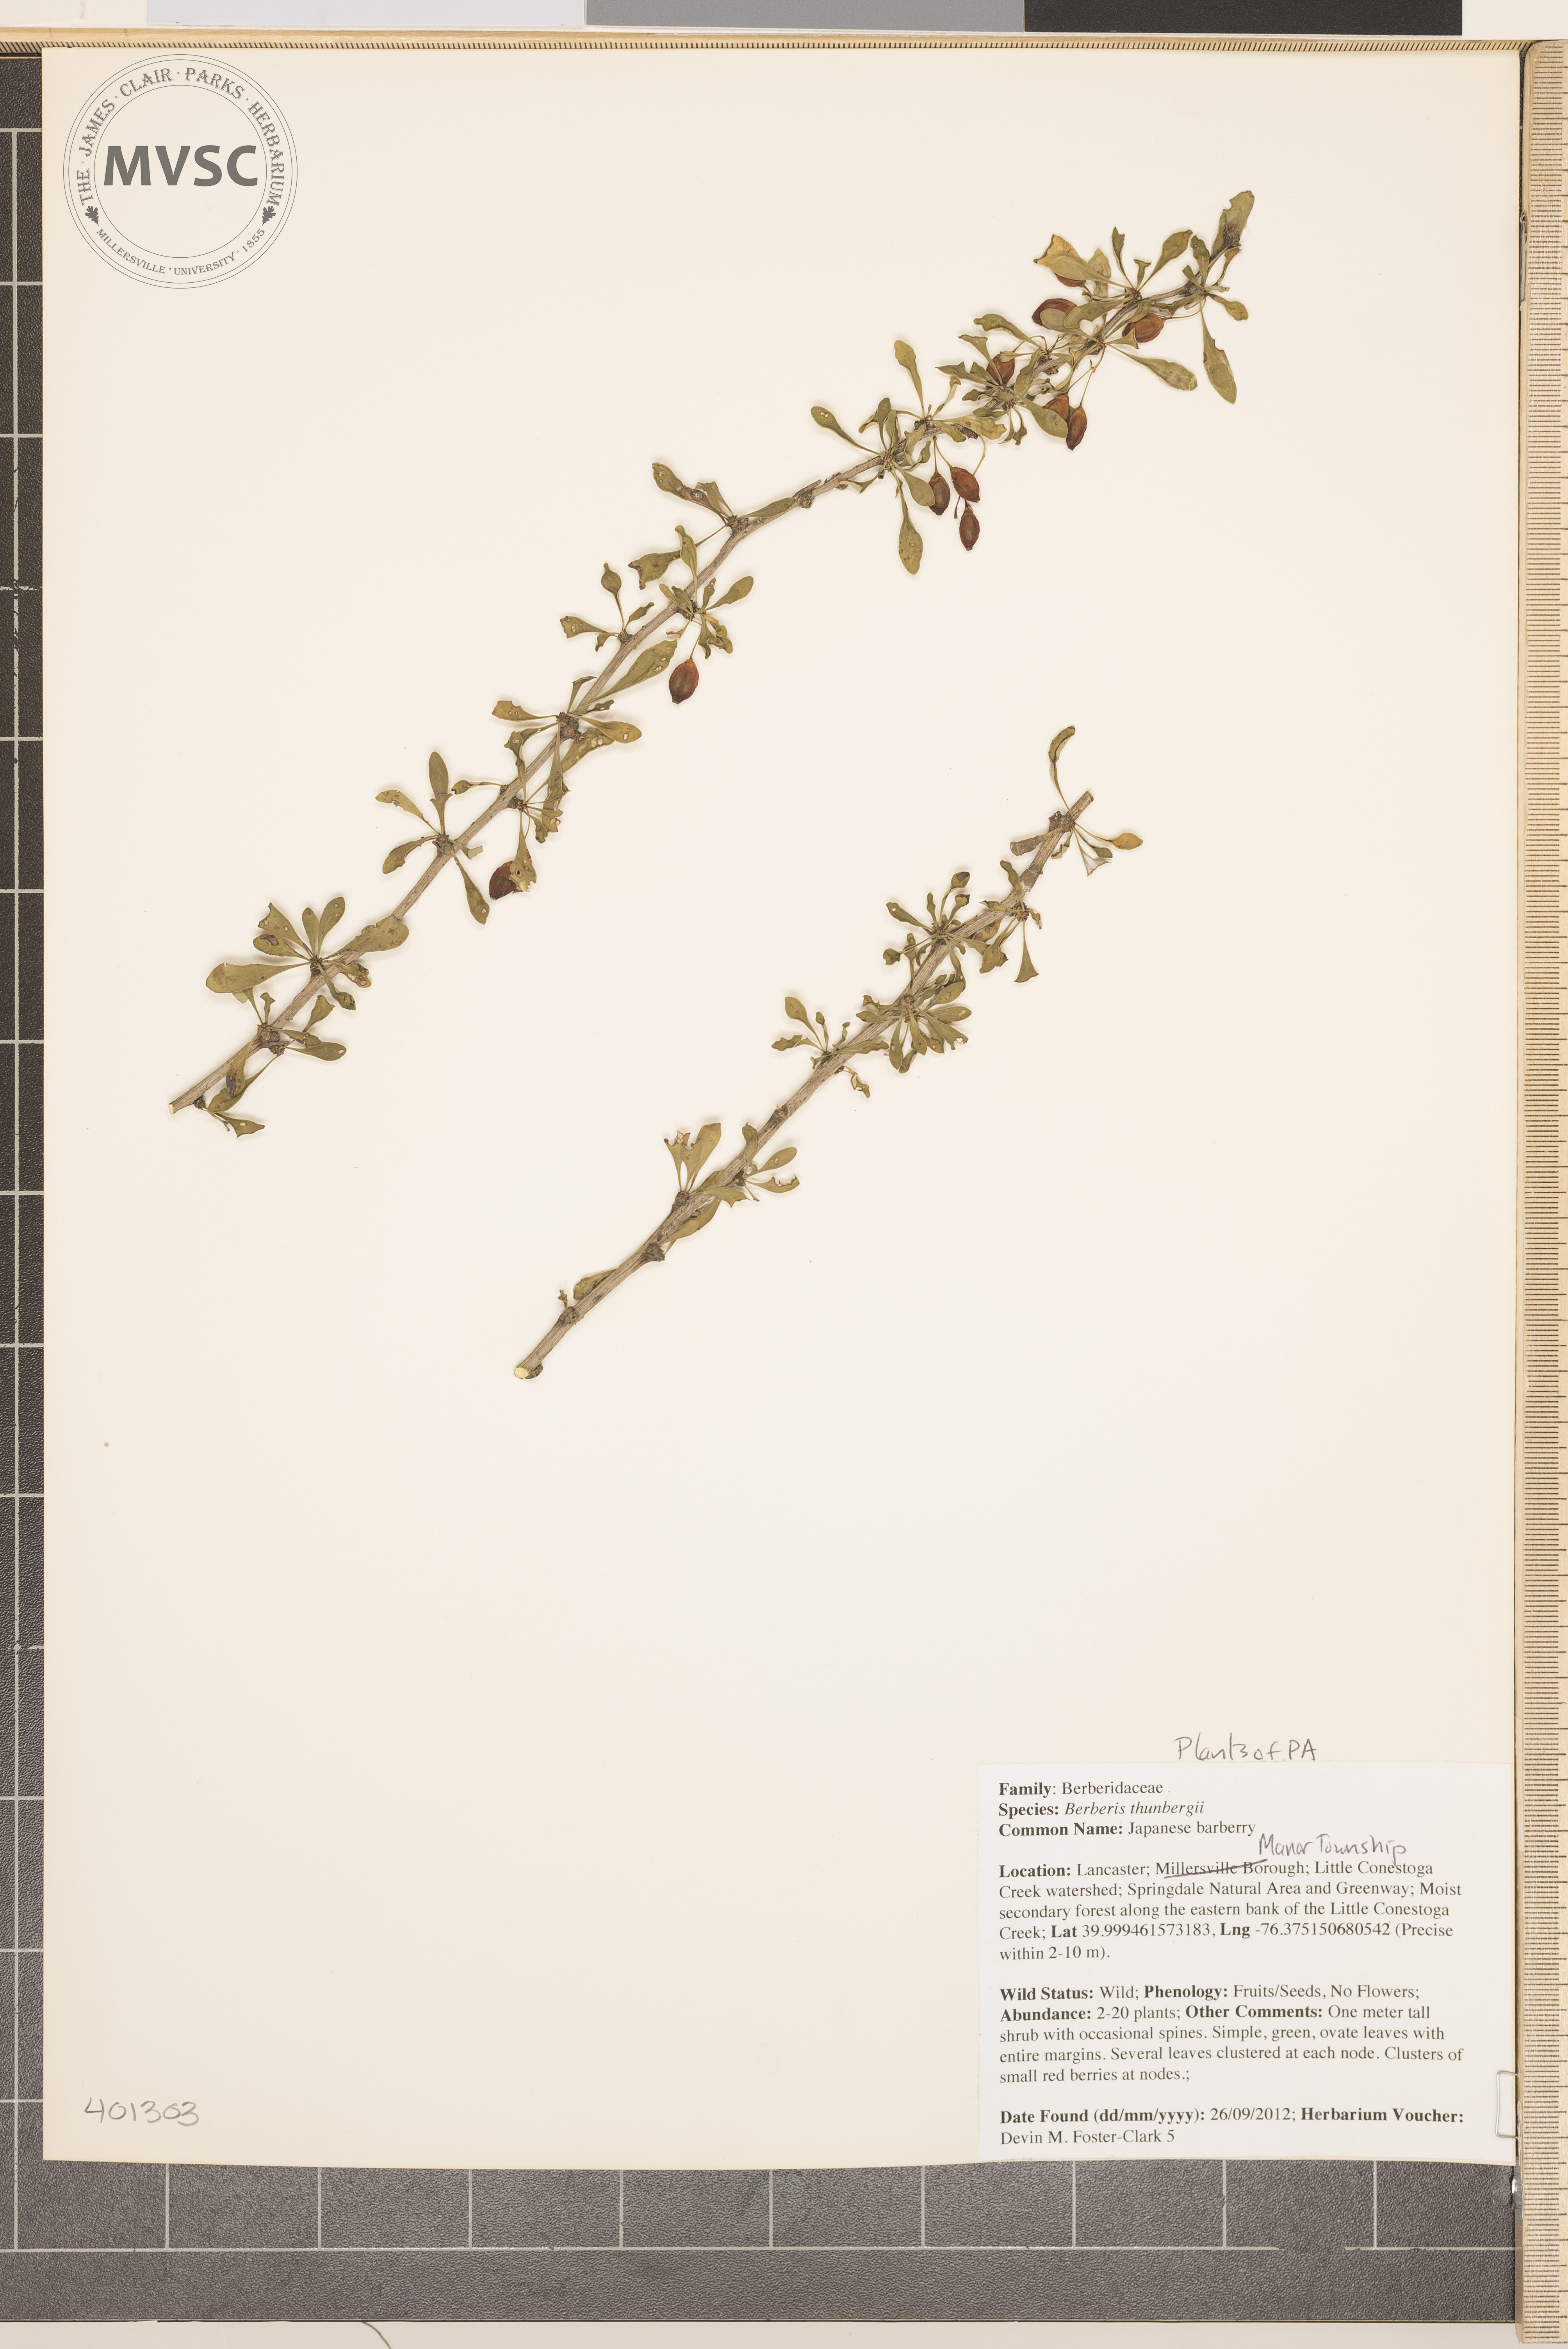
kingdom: Plantae
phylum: Tracheophyta
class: Magnoliopsida
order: Ranunculales
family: Berberidaceae
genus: Berberis
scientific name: Berberis thunbergii
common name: Japanese barberry
